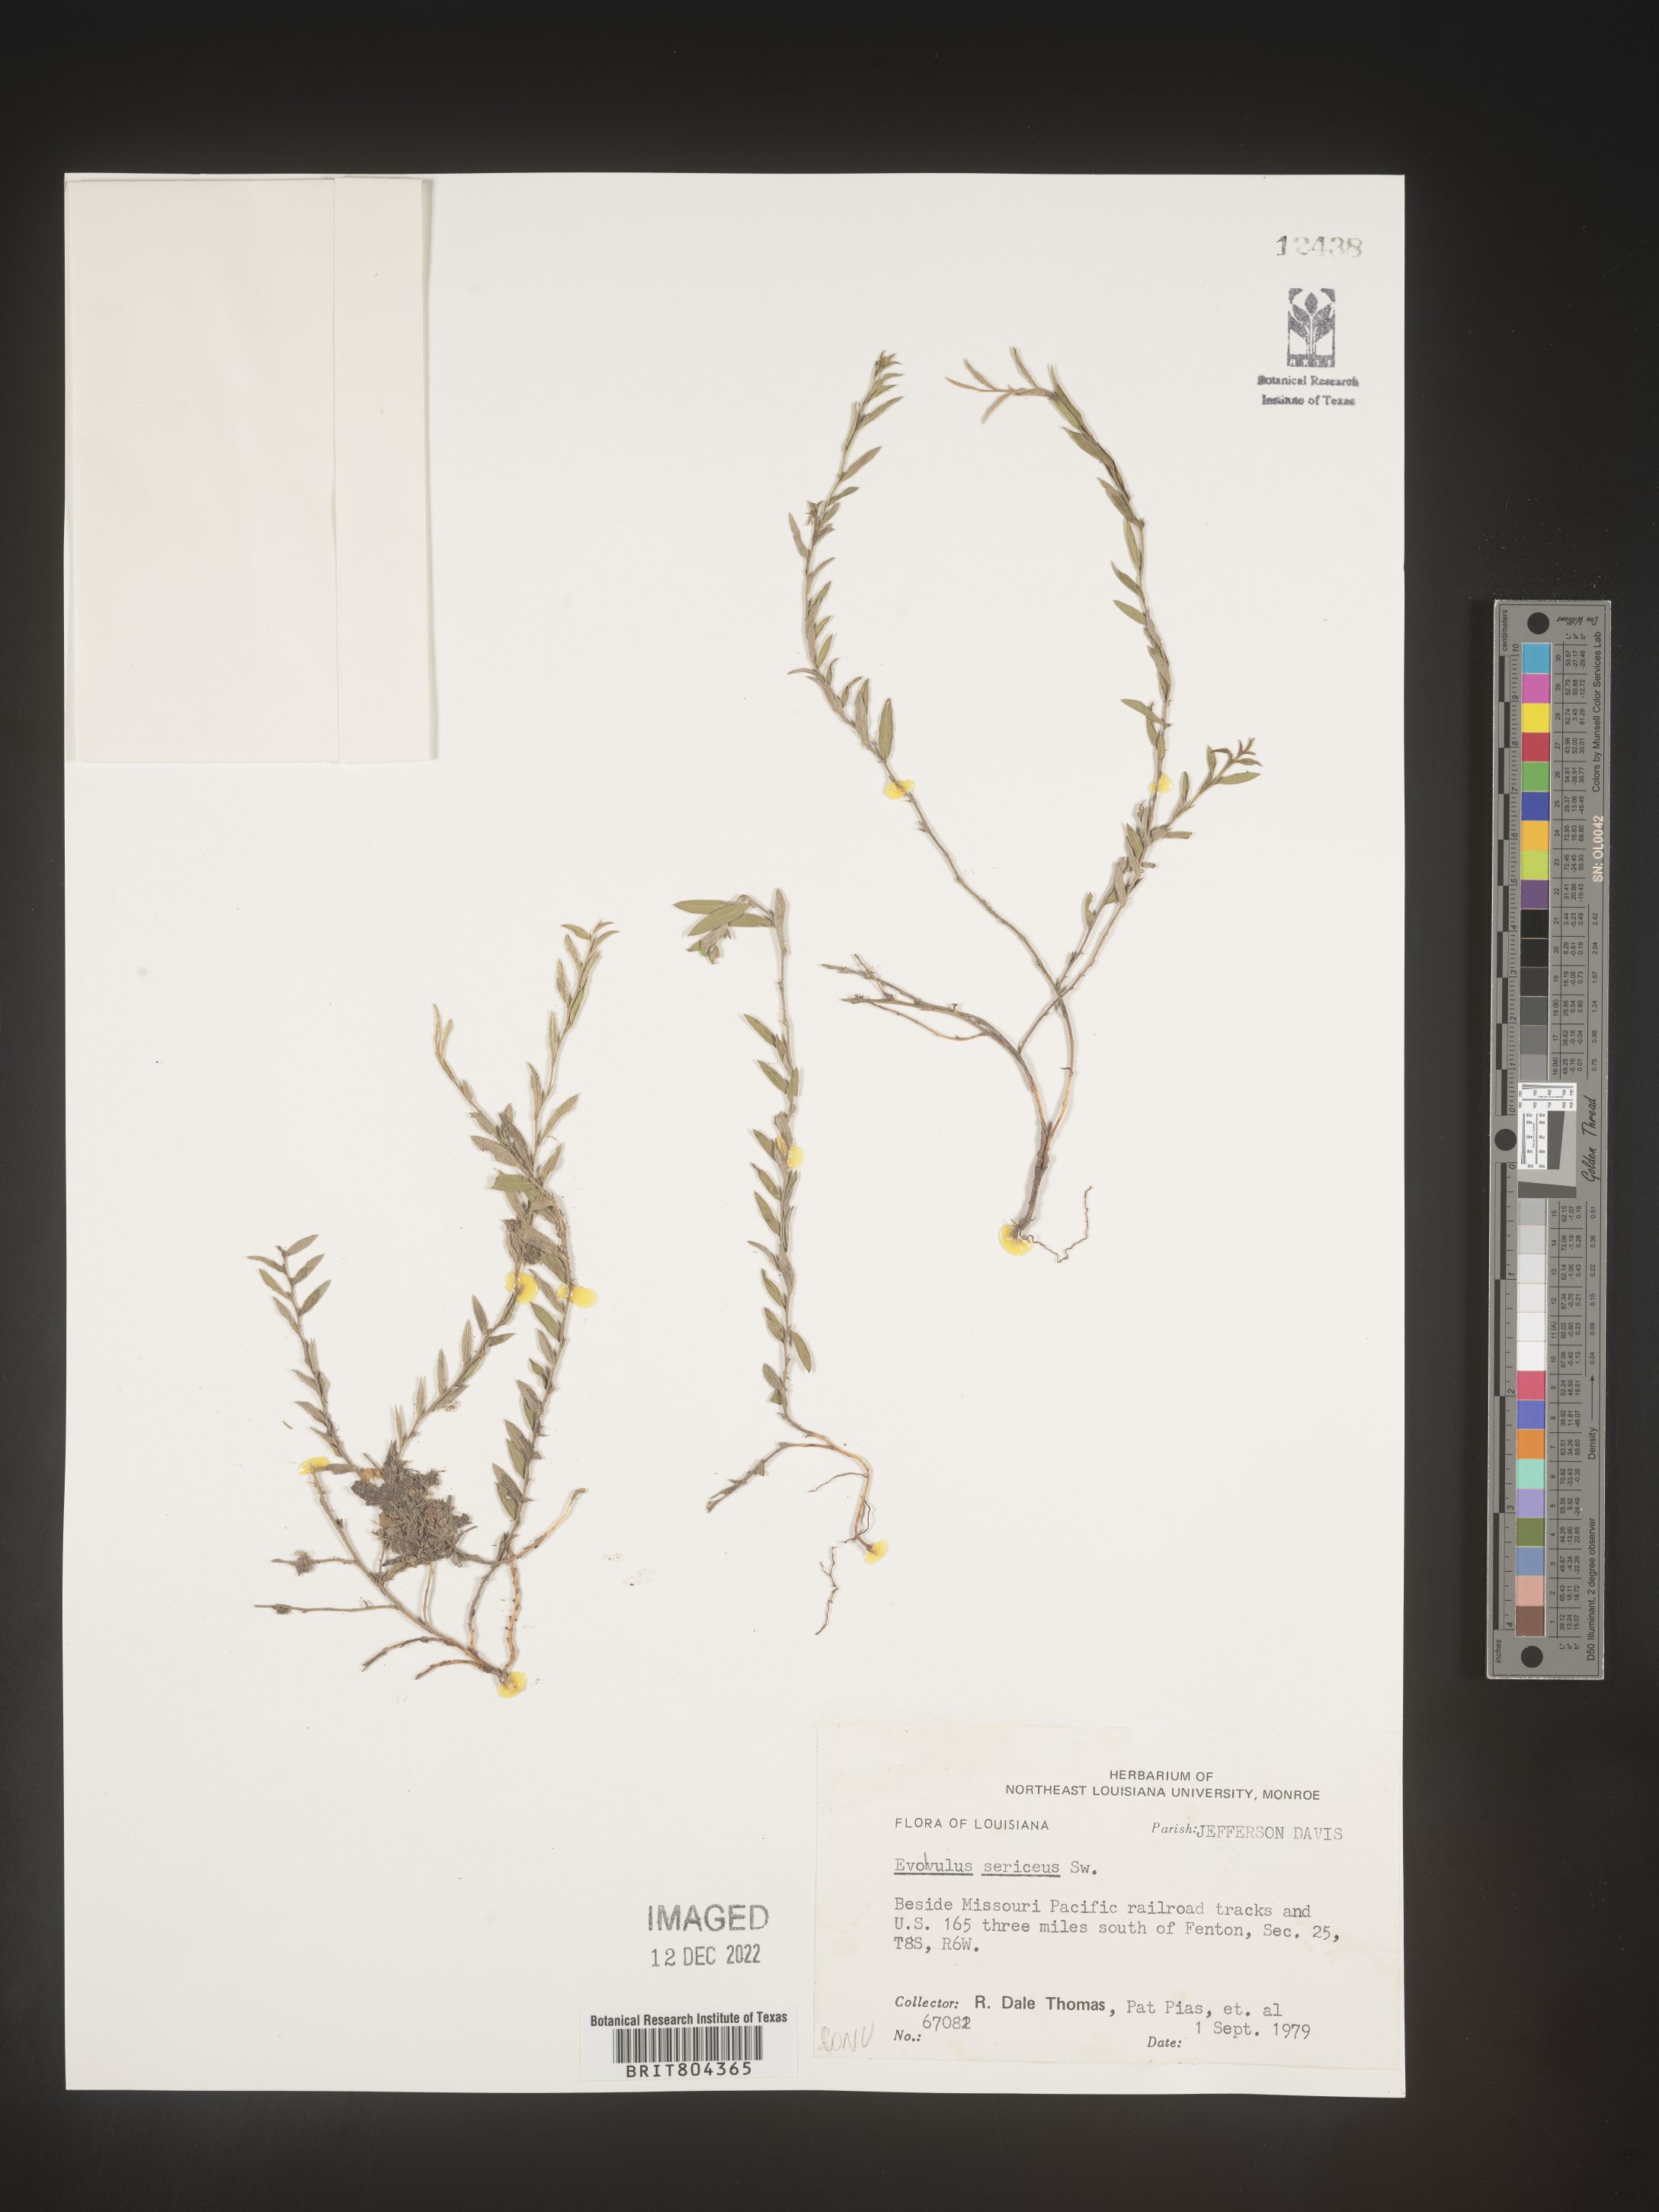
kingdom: Plantae
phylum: Tracheophyta
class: Magnoliopsida
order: Solanales
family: Convolvulaceae
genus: Evolvulus
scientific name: Evolvulus sericeus
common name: Blue dots
